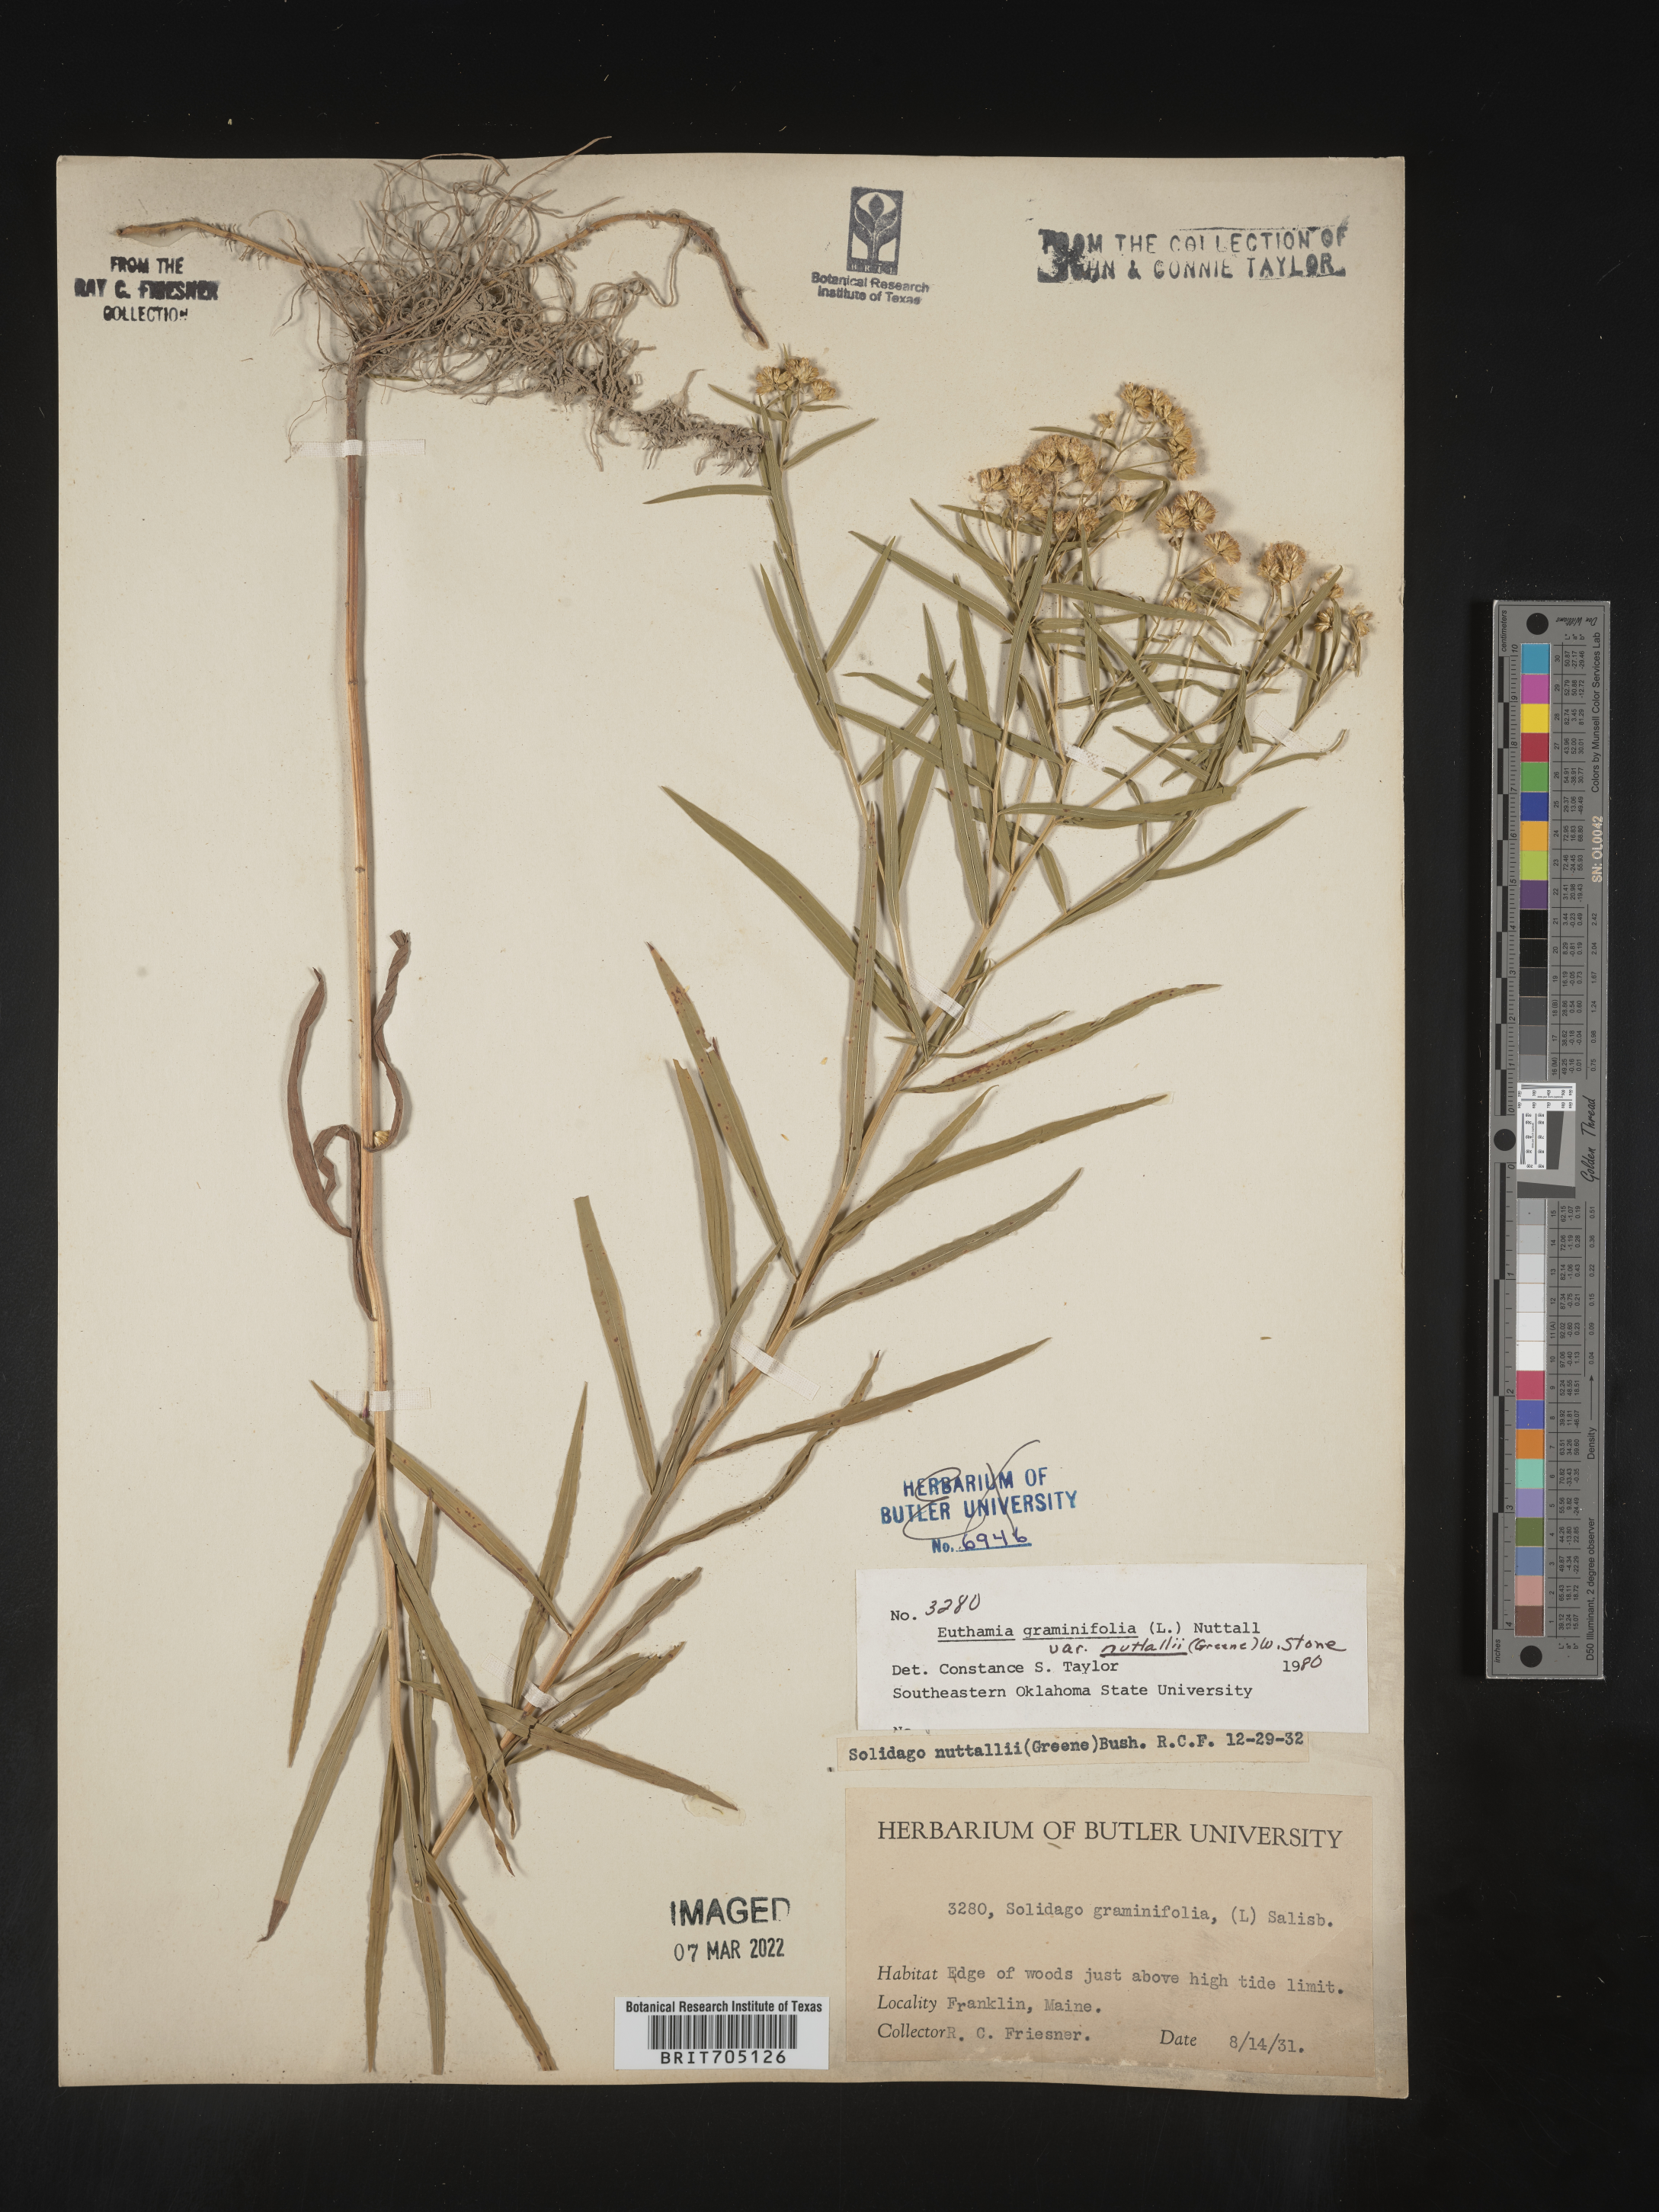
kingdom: Plantae
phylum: Tracheophyta
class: Magnoliopsida
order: Asterales
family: Asteraceae
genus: Euthamia
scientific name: Euthamia graminifolia
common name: Common goldentop
